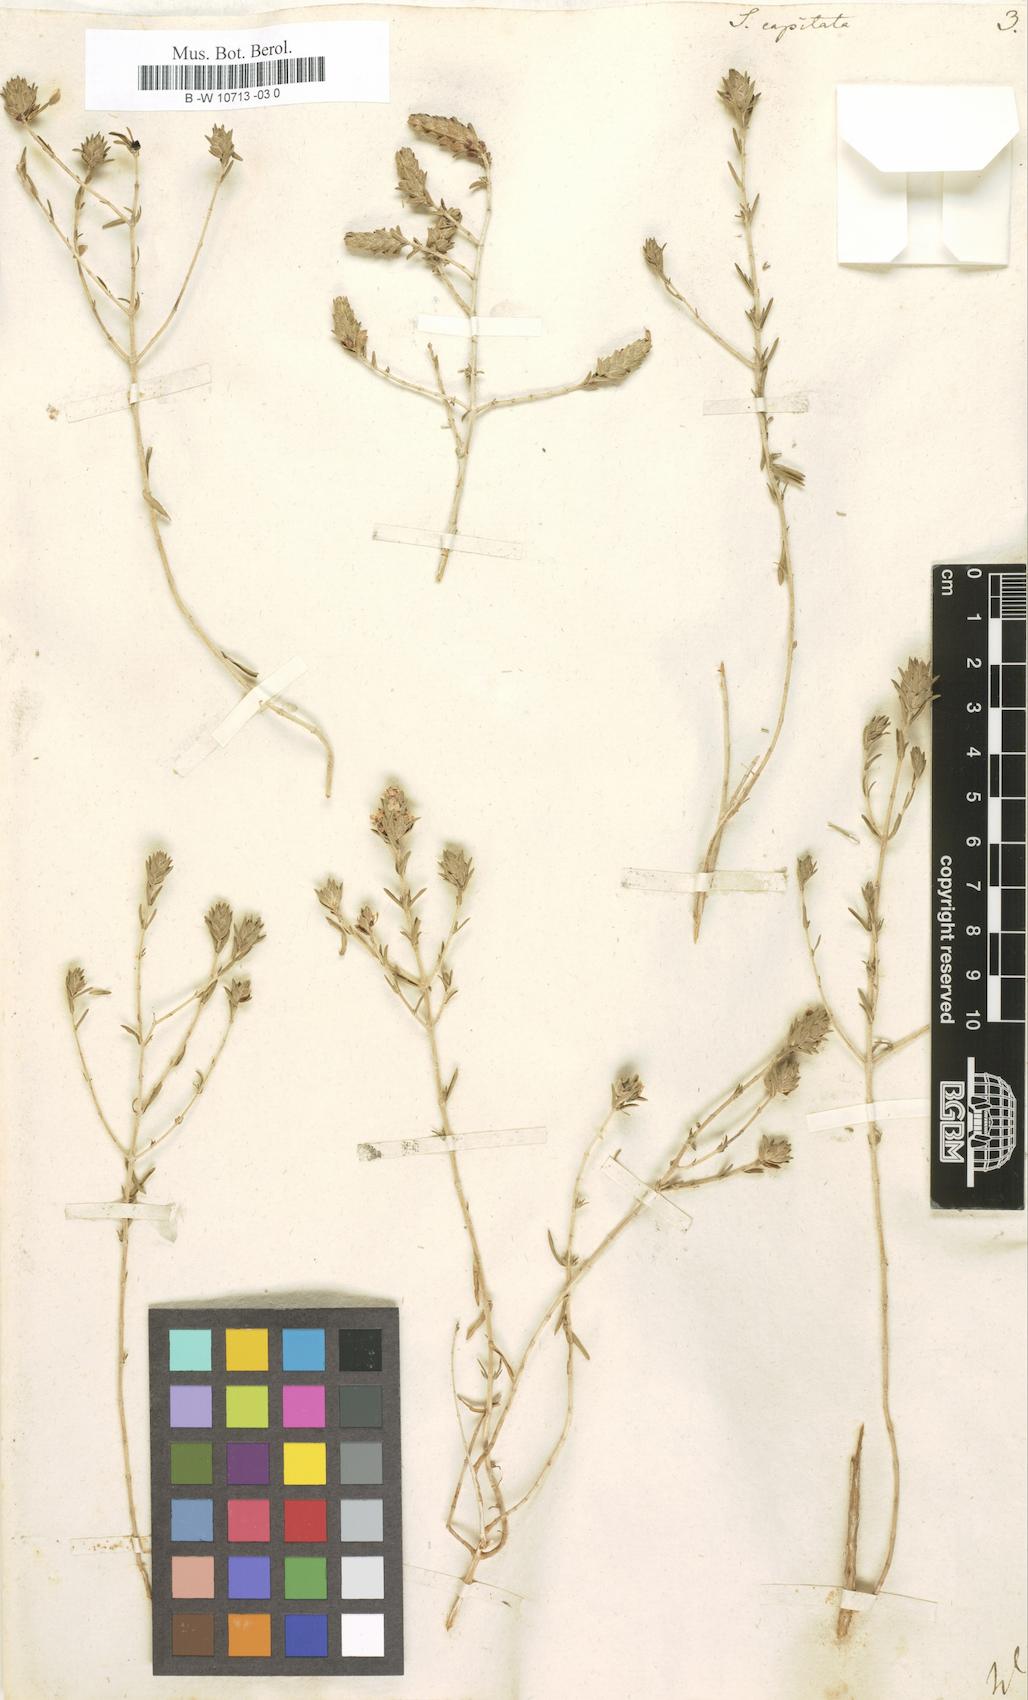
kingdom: Plantae
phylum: Tracheophyta
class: Magnoliopsida
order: Lamiales
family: Lamiaceae
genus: Micromeria
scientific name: Micromeria nervosa
